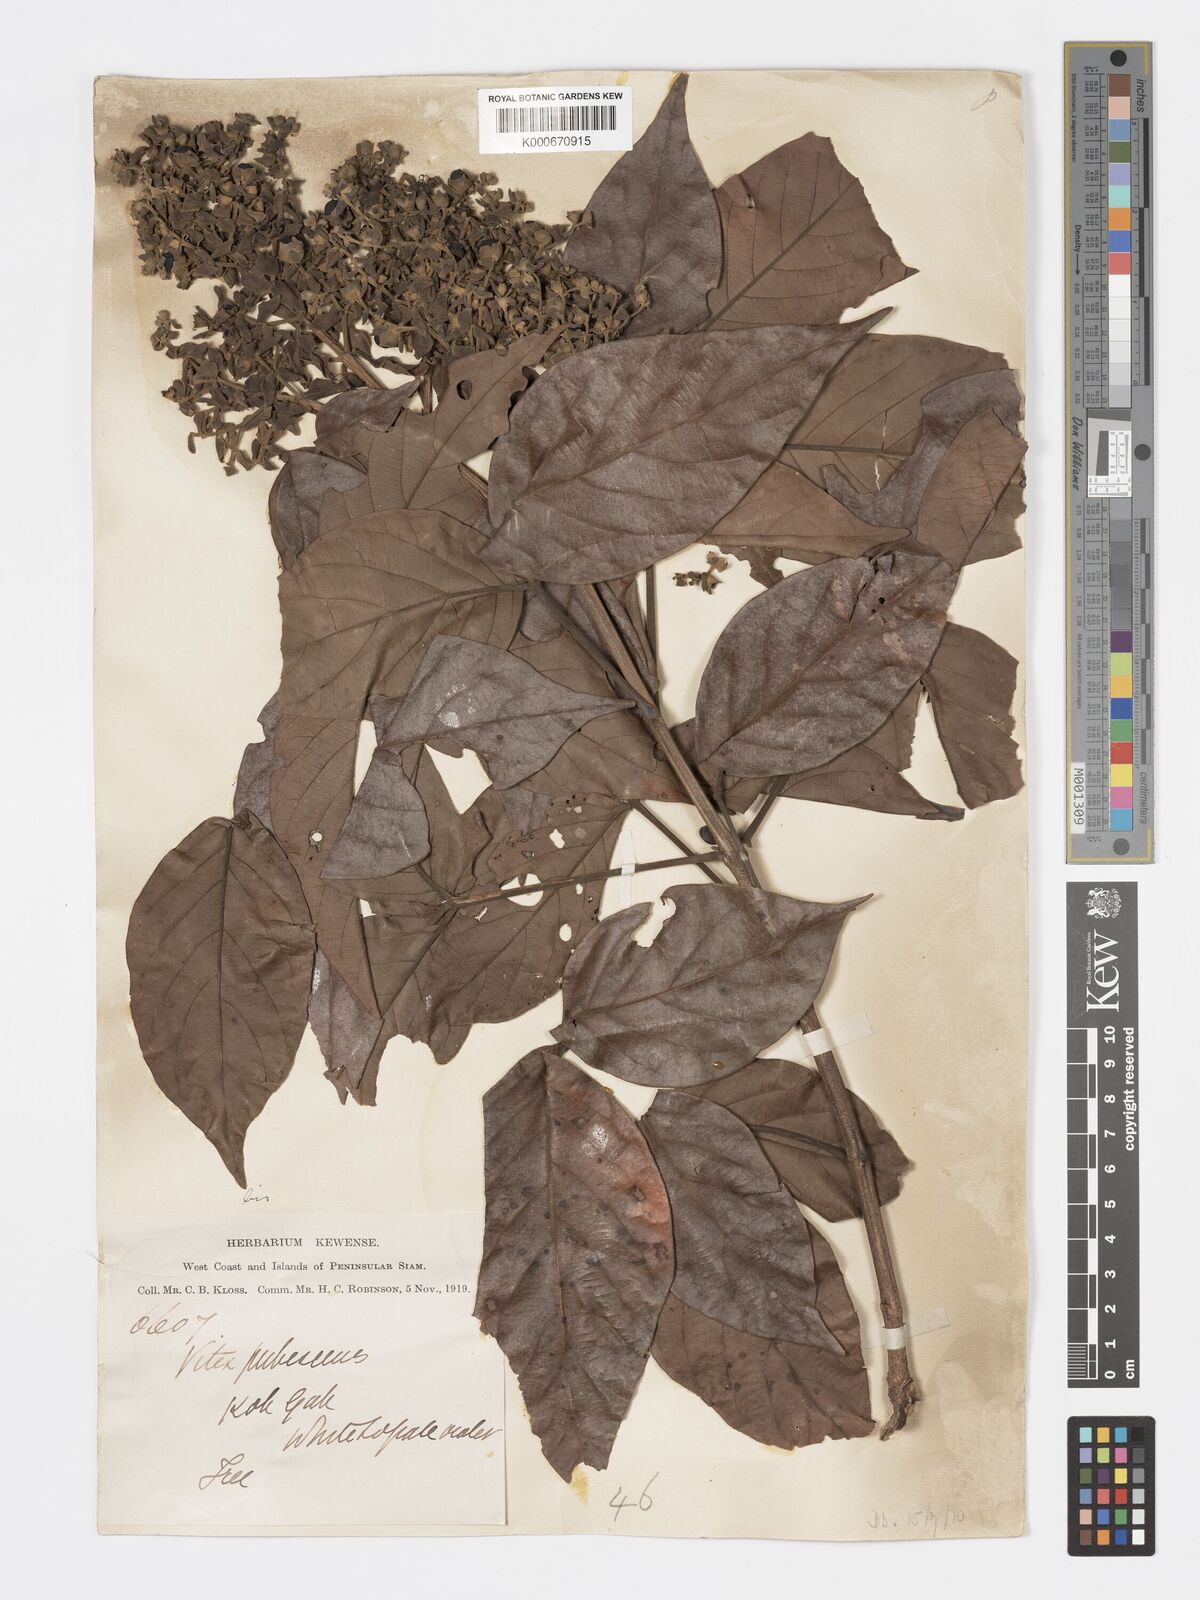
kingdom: Plantae
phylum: Tracheophyta
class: Magnoliopsida
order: Lamiales
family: Lamiaceae
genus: Vitex
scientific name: Vitex pinnata
